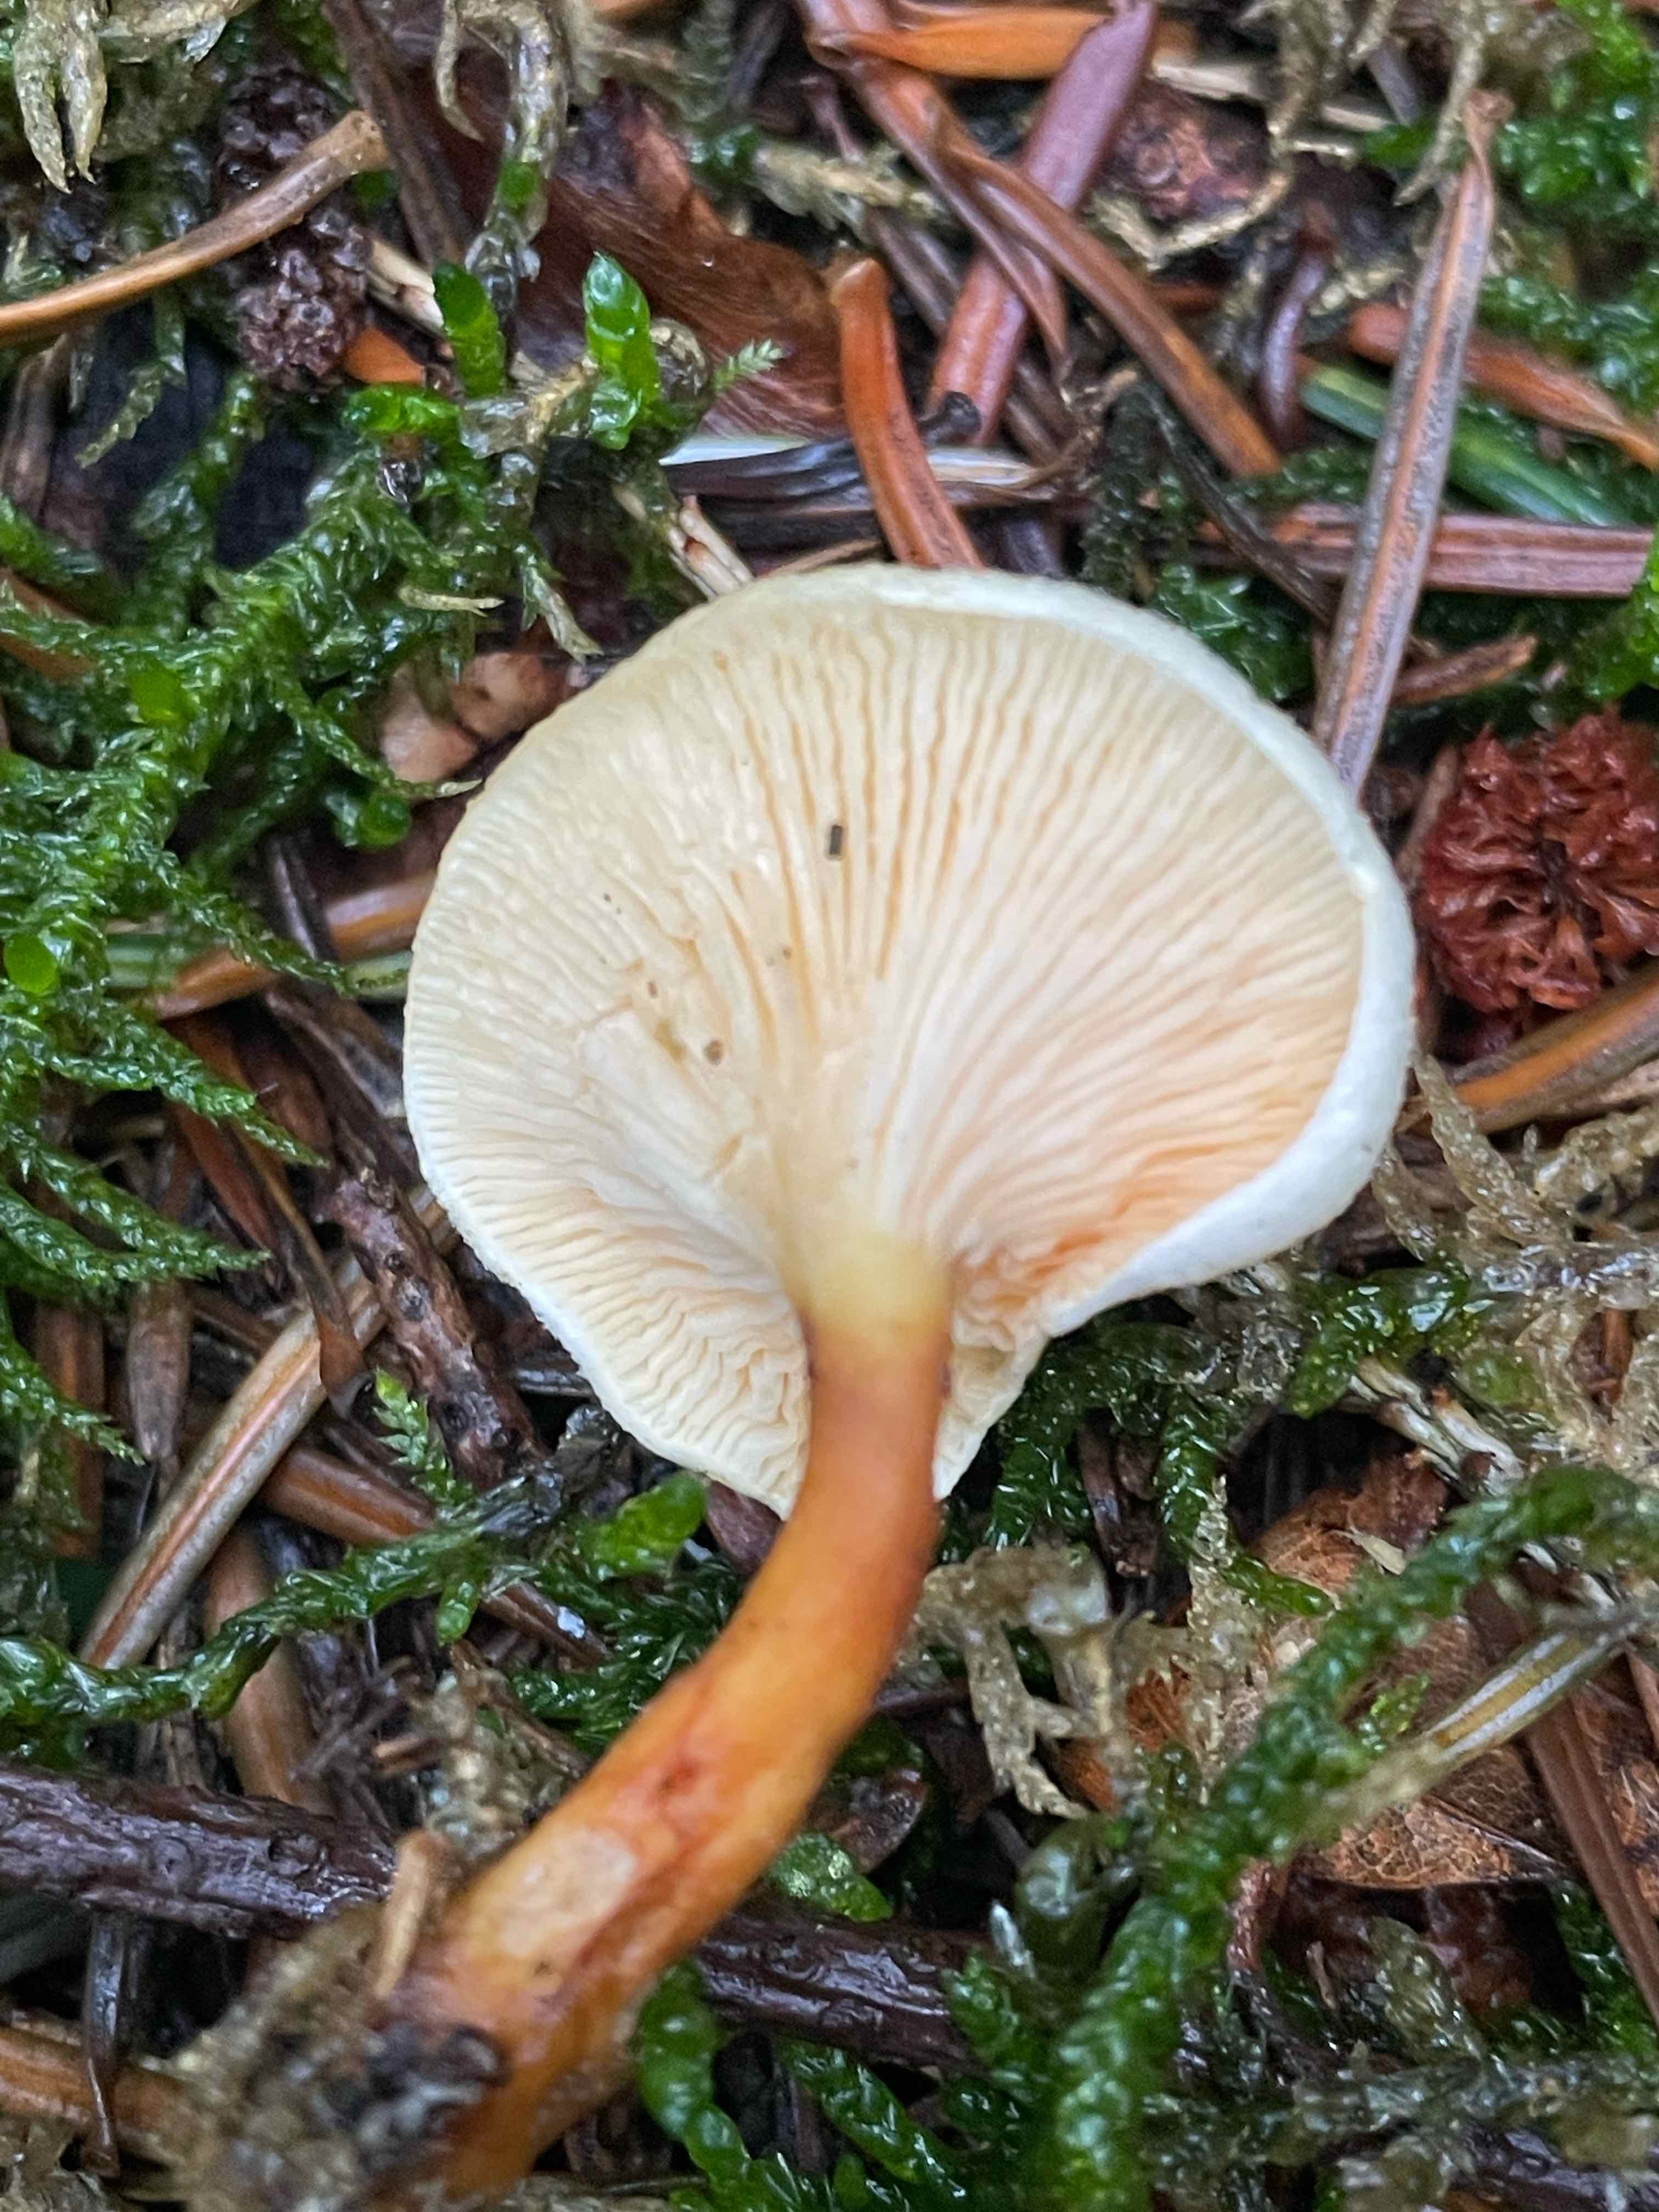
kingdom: Fungi
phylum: Basidiomycota
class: Agaricomycetes
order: Boletales
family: Hygrophoropsidaceae
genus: Hygrophoropsis
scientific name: Hygrophoropsis
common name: orangekantarel
